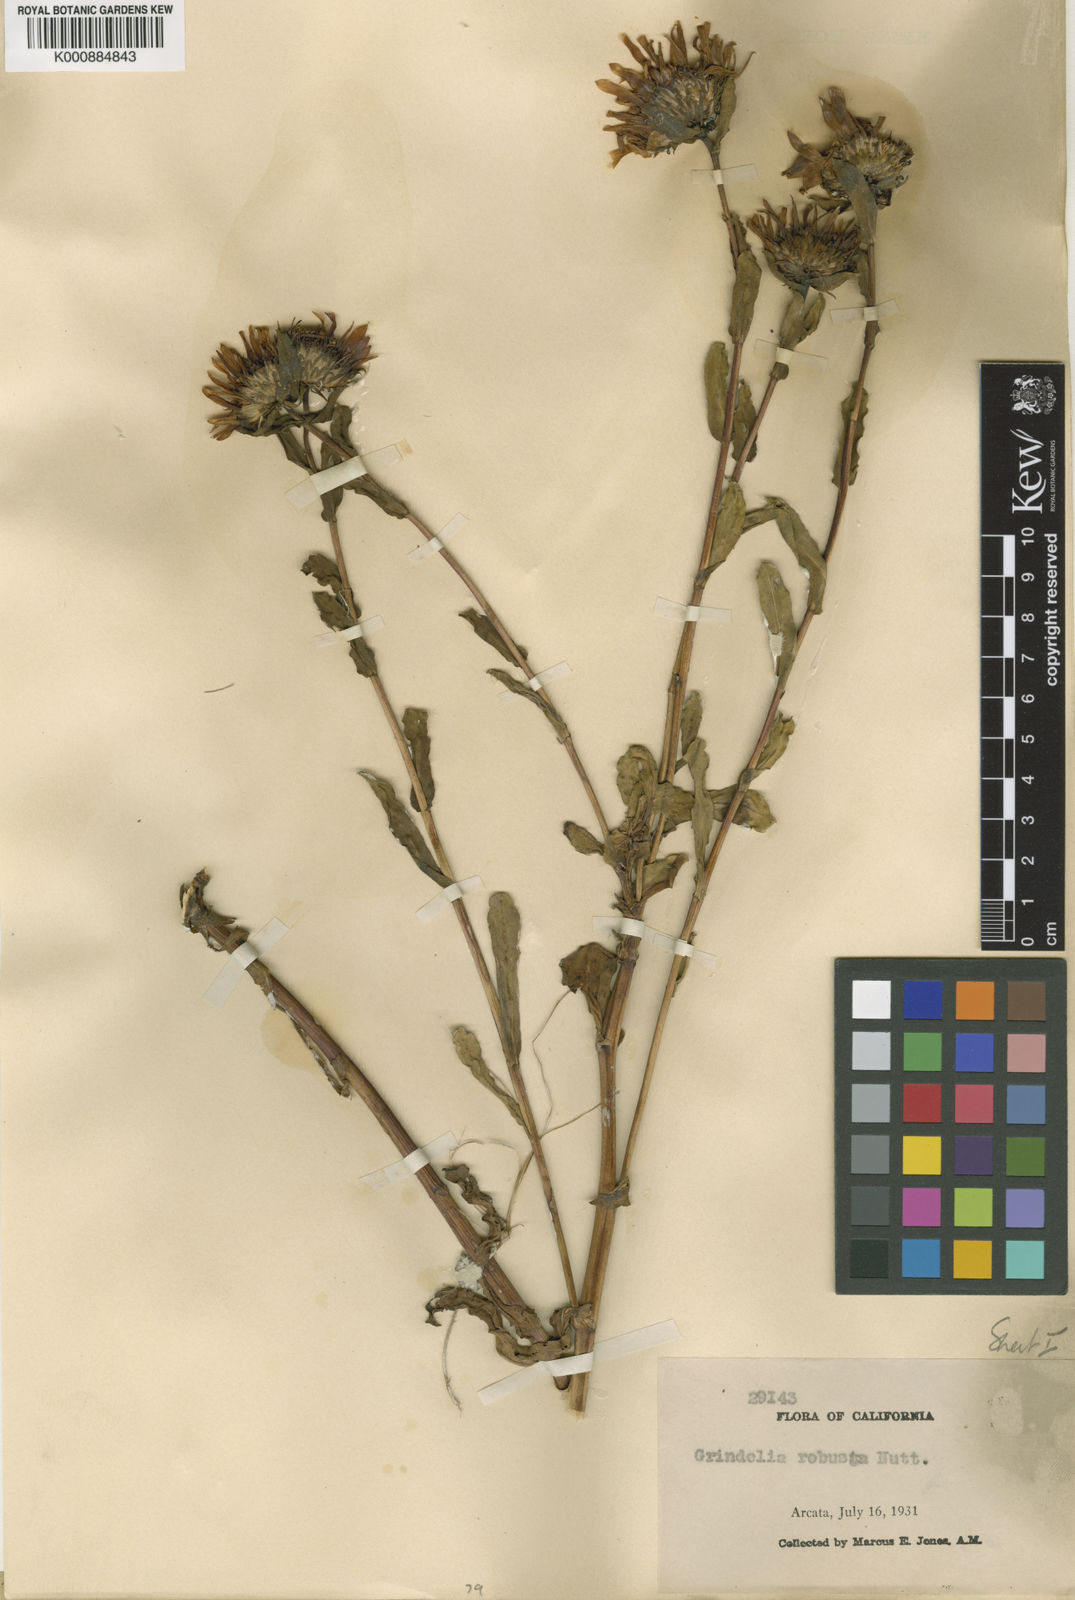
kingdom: Plantae
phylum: Tracheophyta
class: Magnoliopsida
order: Asterales
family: Asteraceae
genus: Grindelia
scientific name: Grindelia hirsutula
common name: Hairy gumweed
